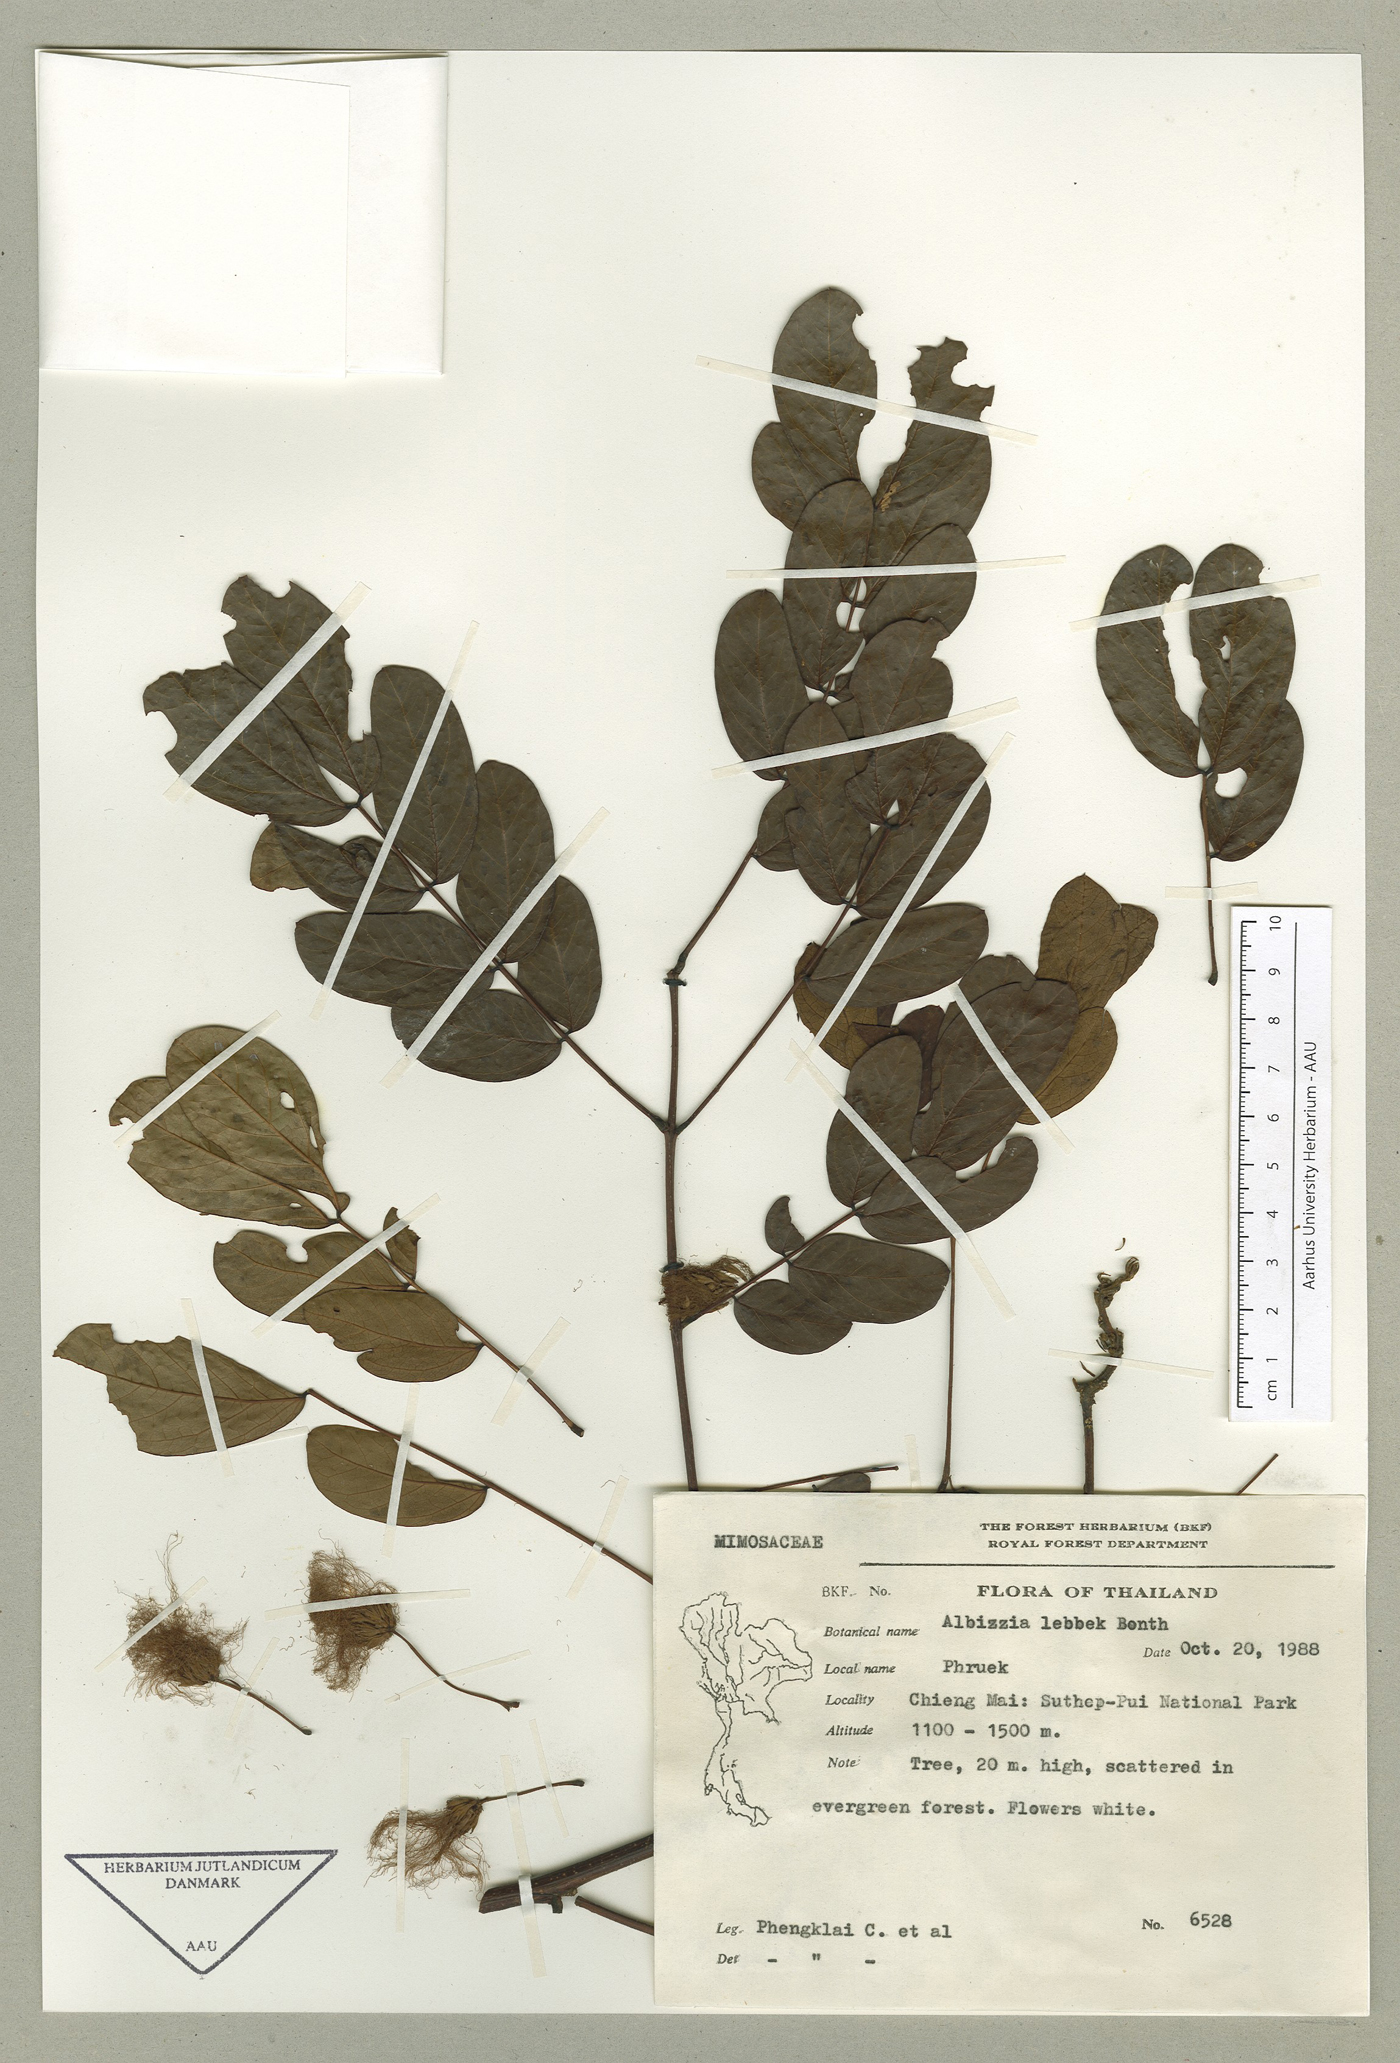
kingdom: Plantae
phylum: Tracheophyta
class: Magnoliopsida
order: Fabales
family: Fabaceae
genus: Albizia
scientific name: Albizia crassiramea
